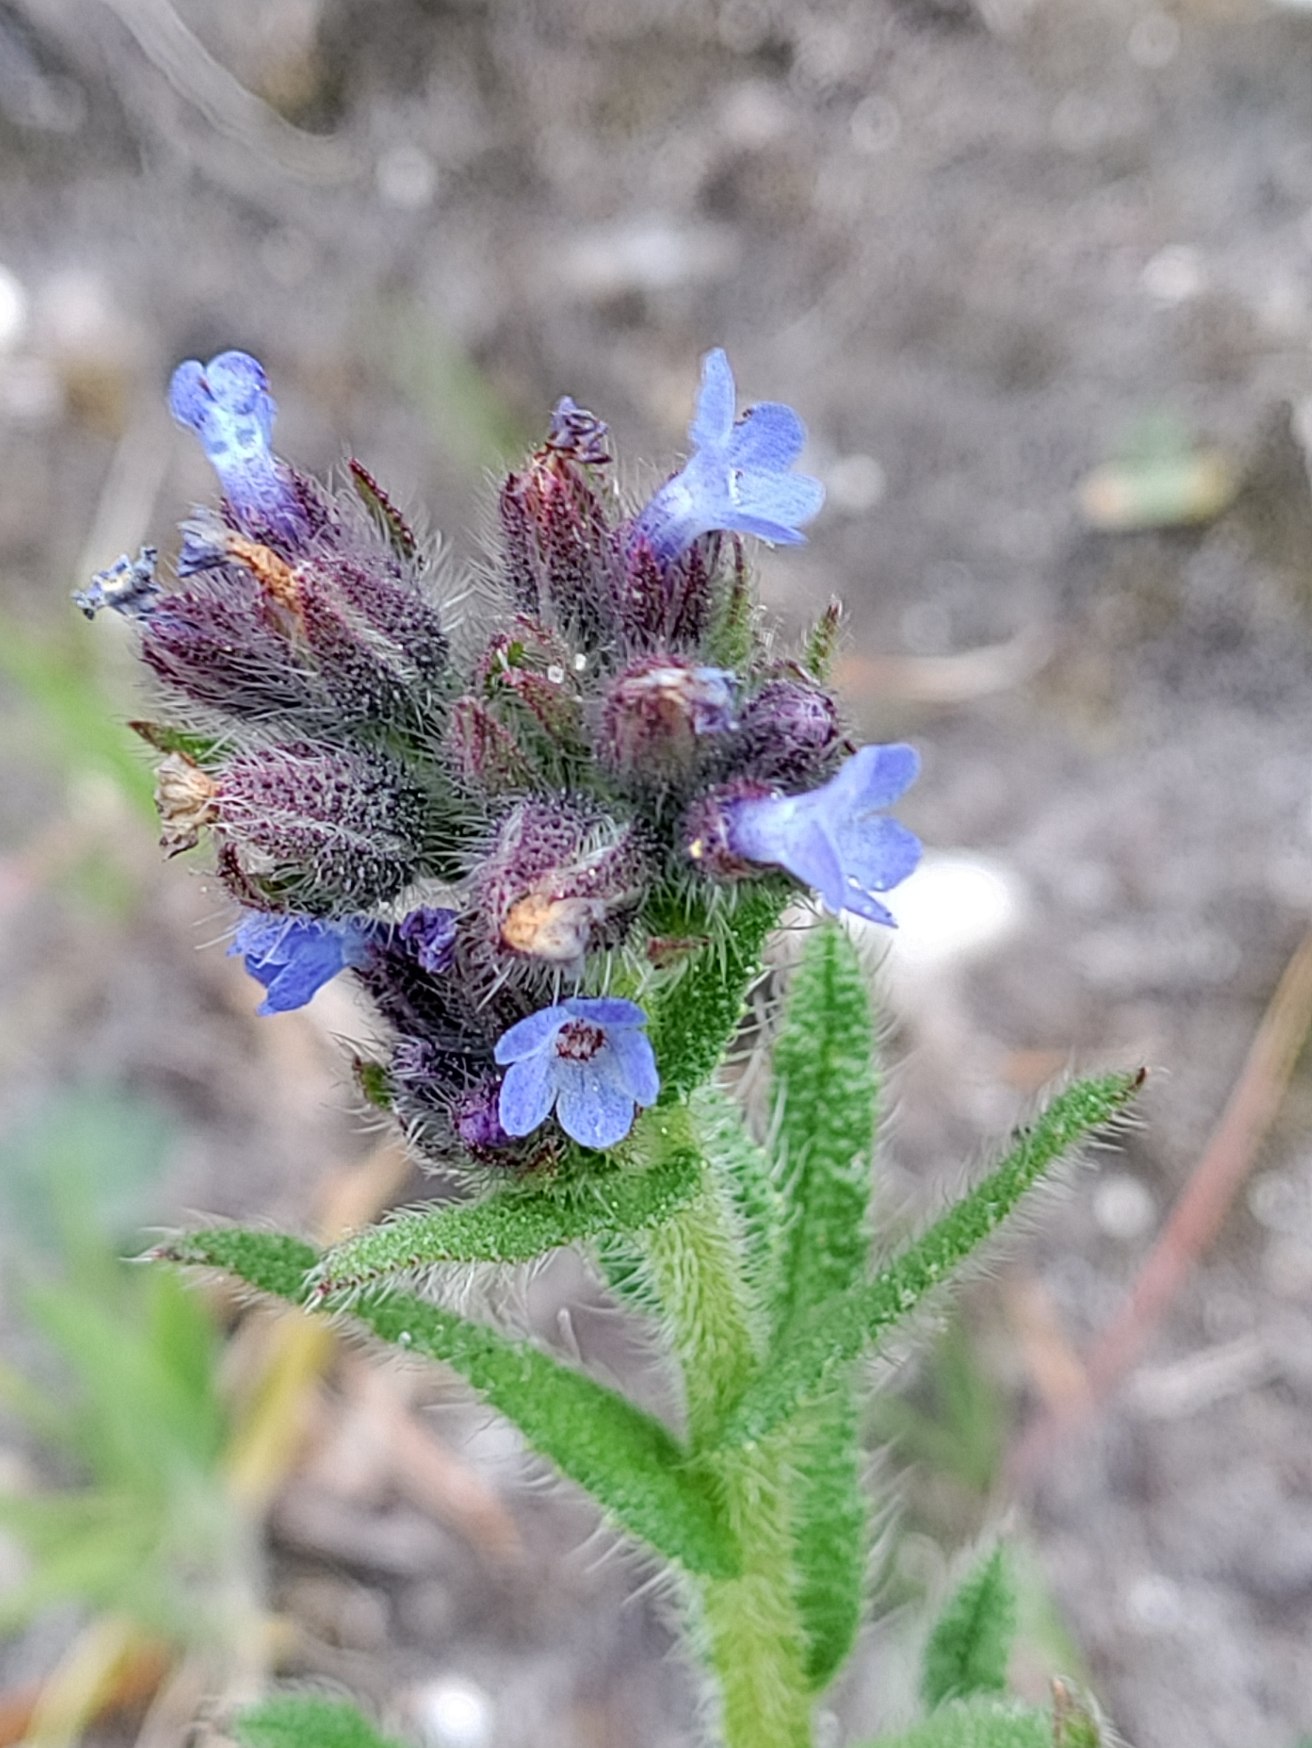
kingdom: Plantae
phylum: Tracheophyta
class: Magnoliopsida
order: Boraginales
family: Boraginaceae
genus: Lycopsis
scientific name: Lycopsis arvensis
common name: Krumhals
